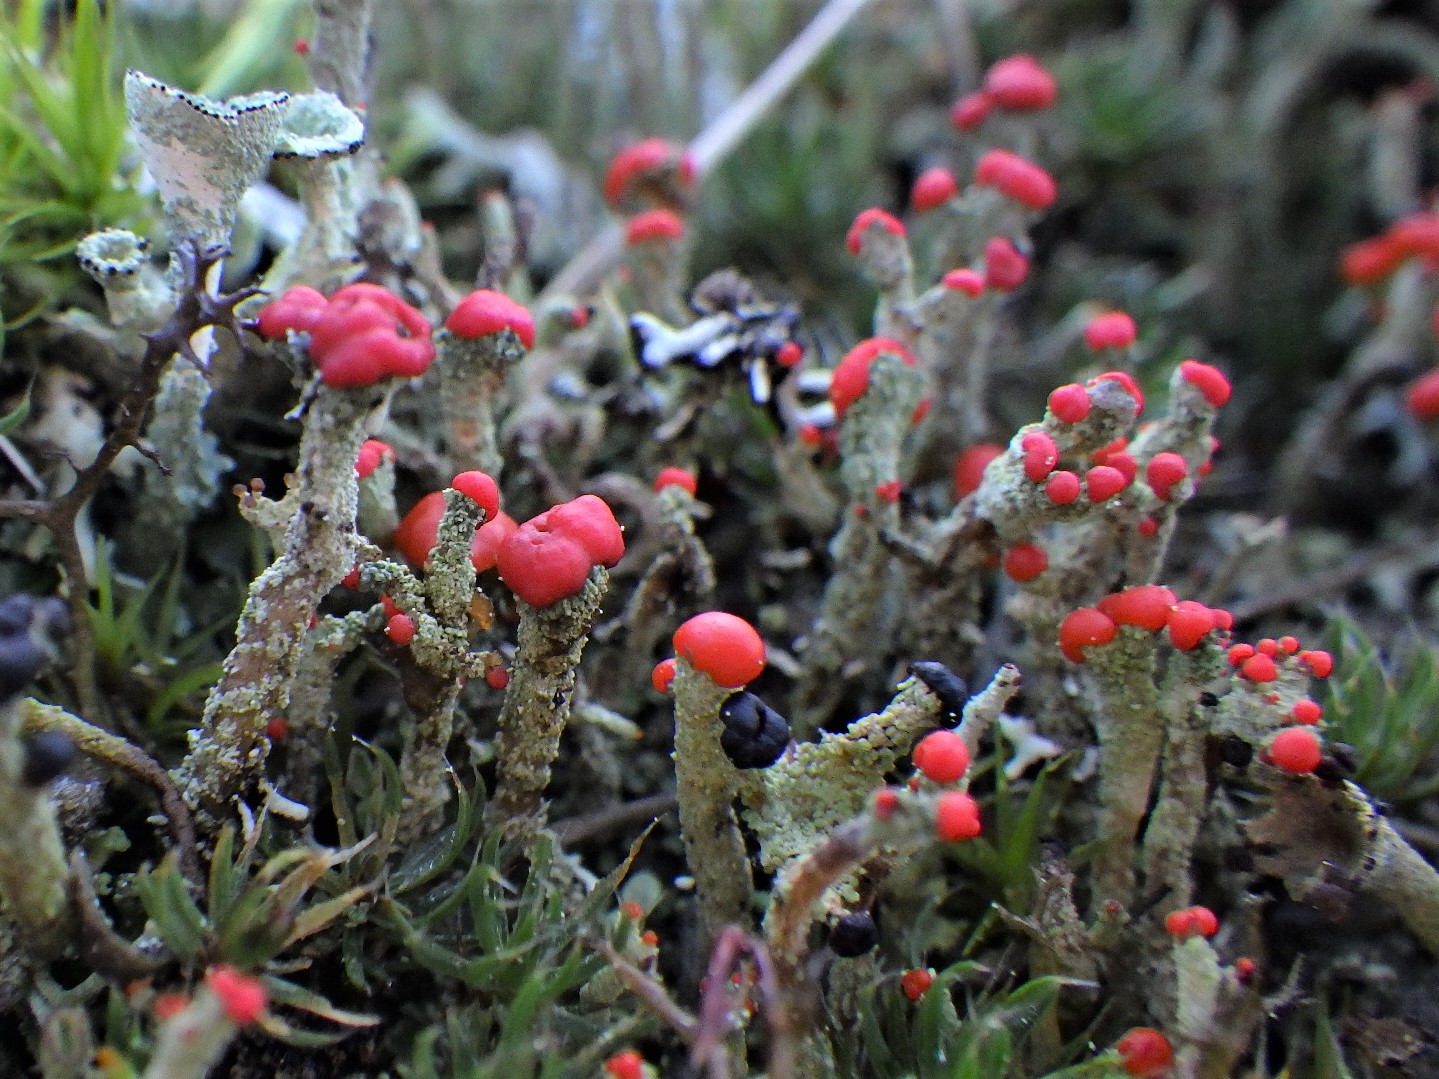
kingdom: Fungi
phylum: Ascomycota
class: Lecanoromycetes
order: Lecanorales
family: Cladoniaceae
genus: Cladonia
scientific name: Cladonia floerkeana
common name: lakrød bægerlav
